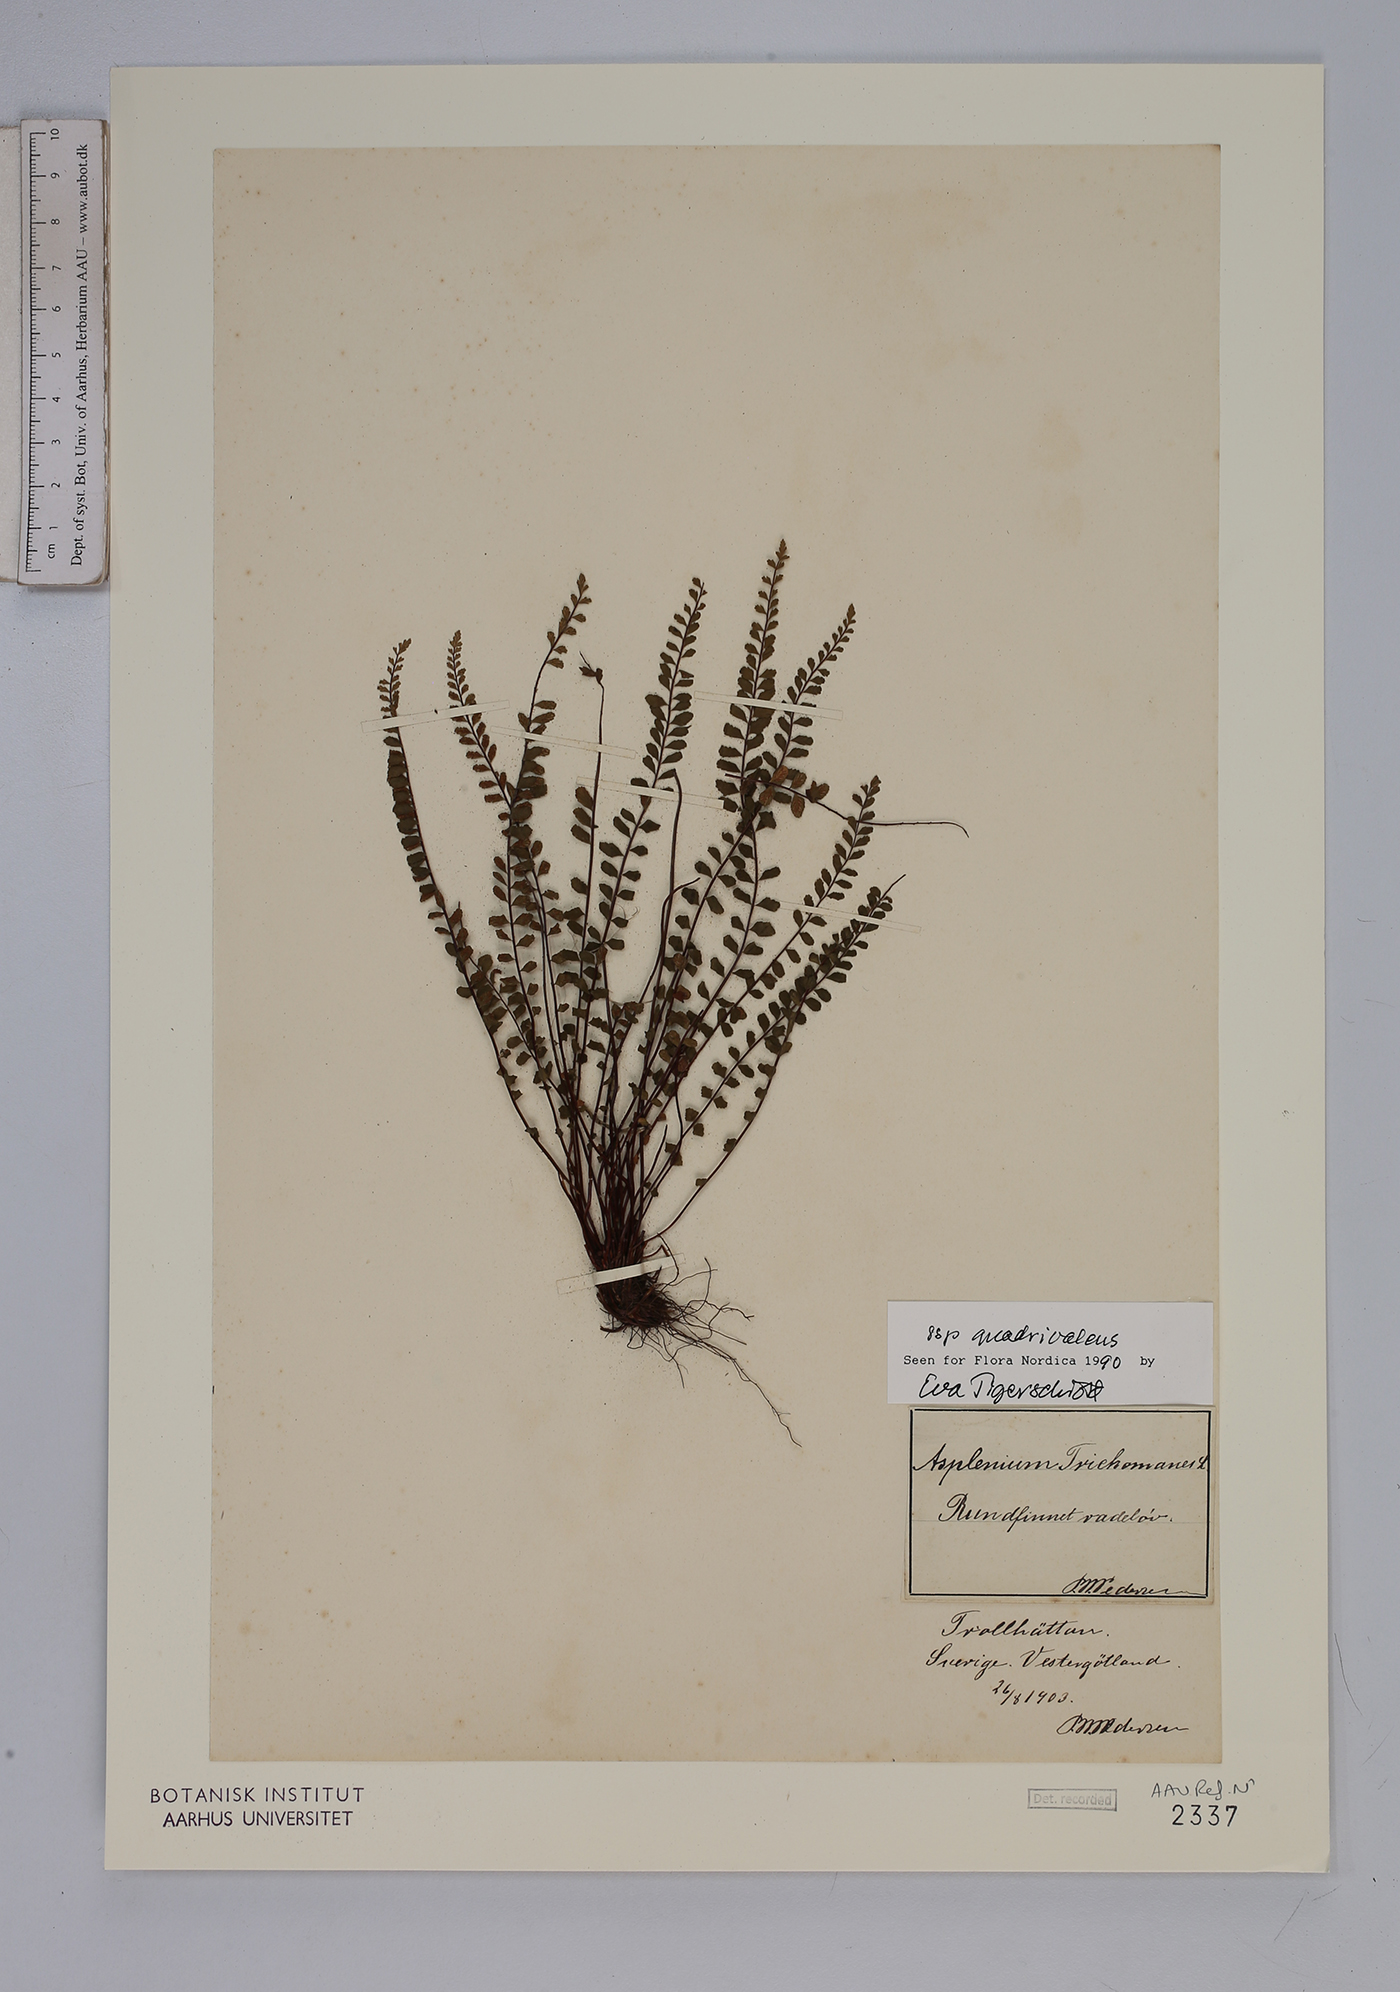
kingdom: Plantae
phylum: Tracheophyta
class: Polypodiopsida
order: Polypodiales
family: Aspleniaceae
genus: Asplenium
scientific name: Asplenium quadrivalens
